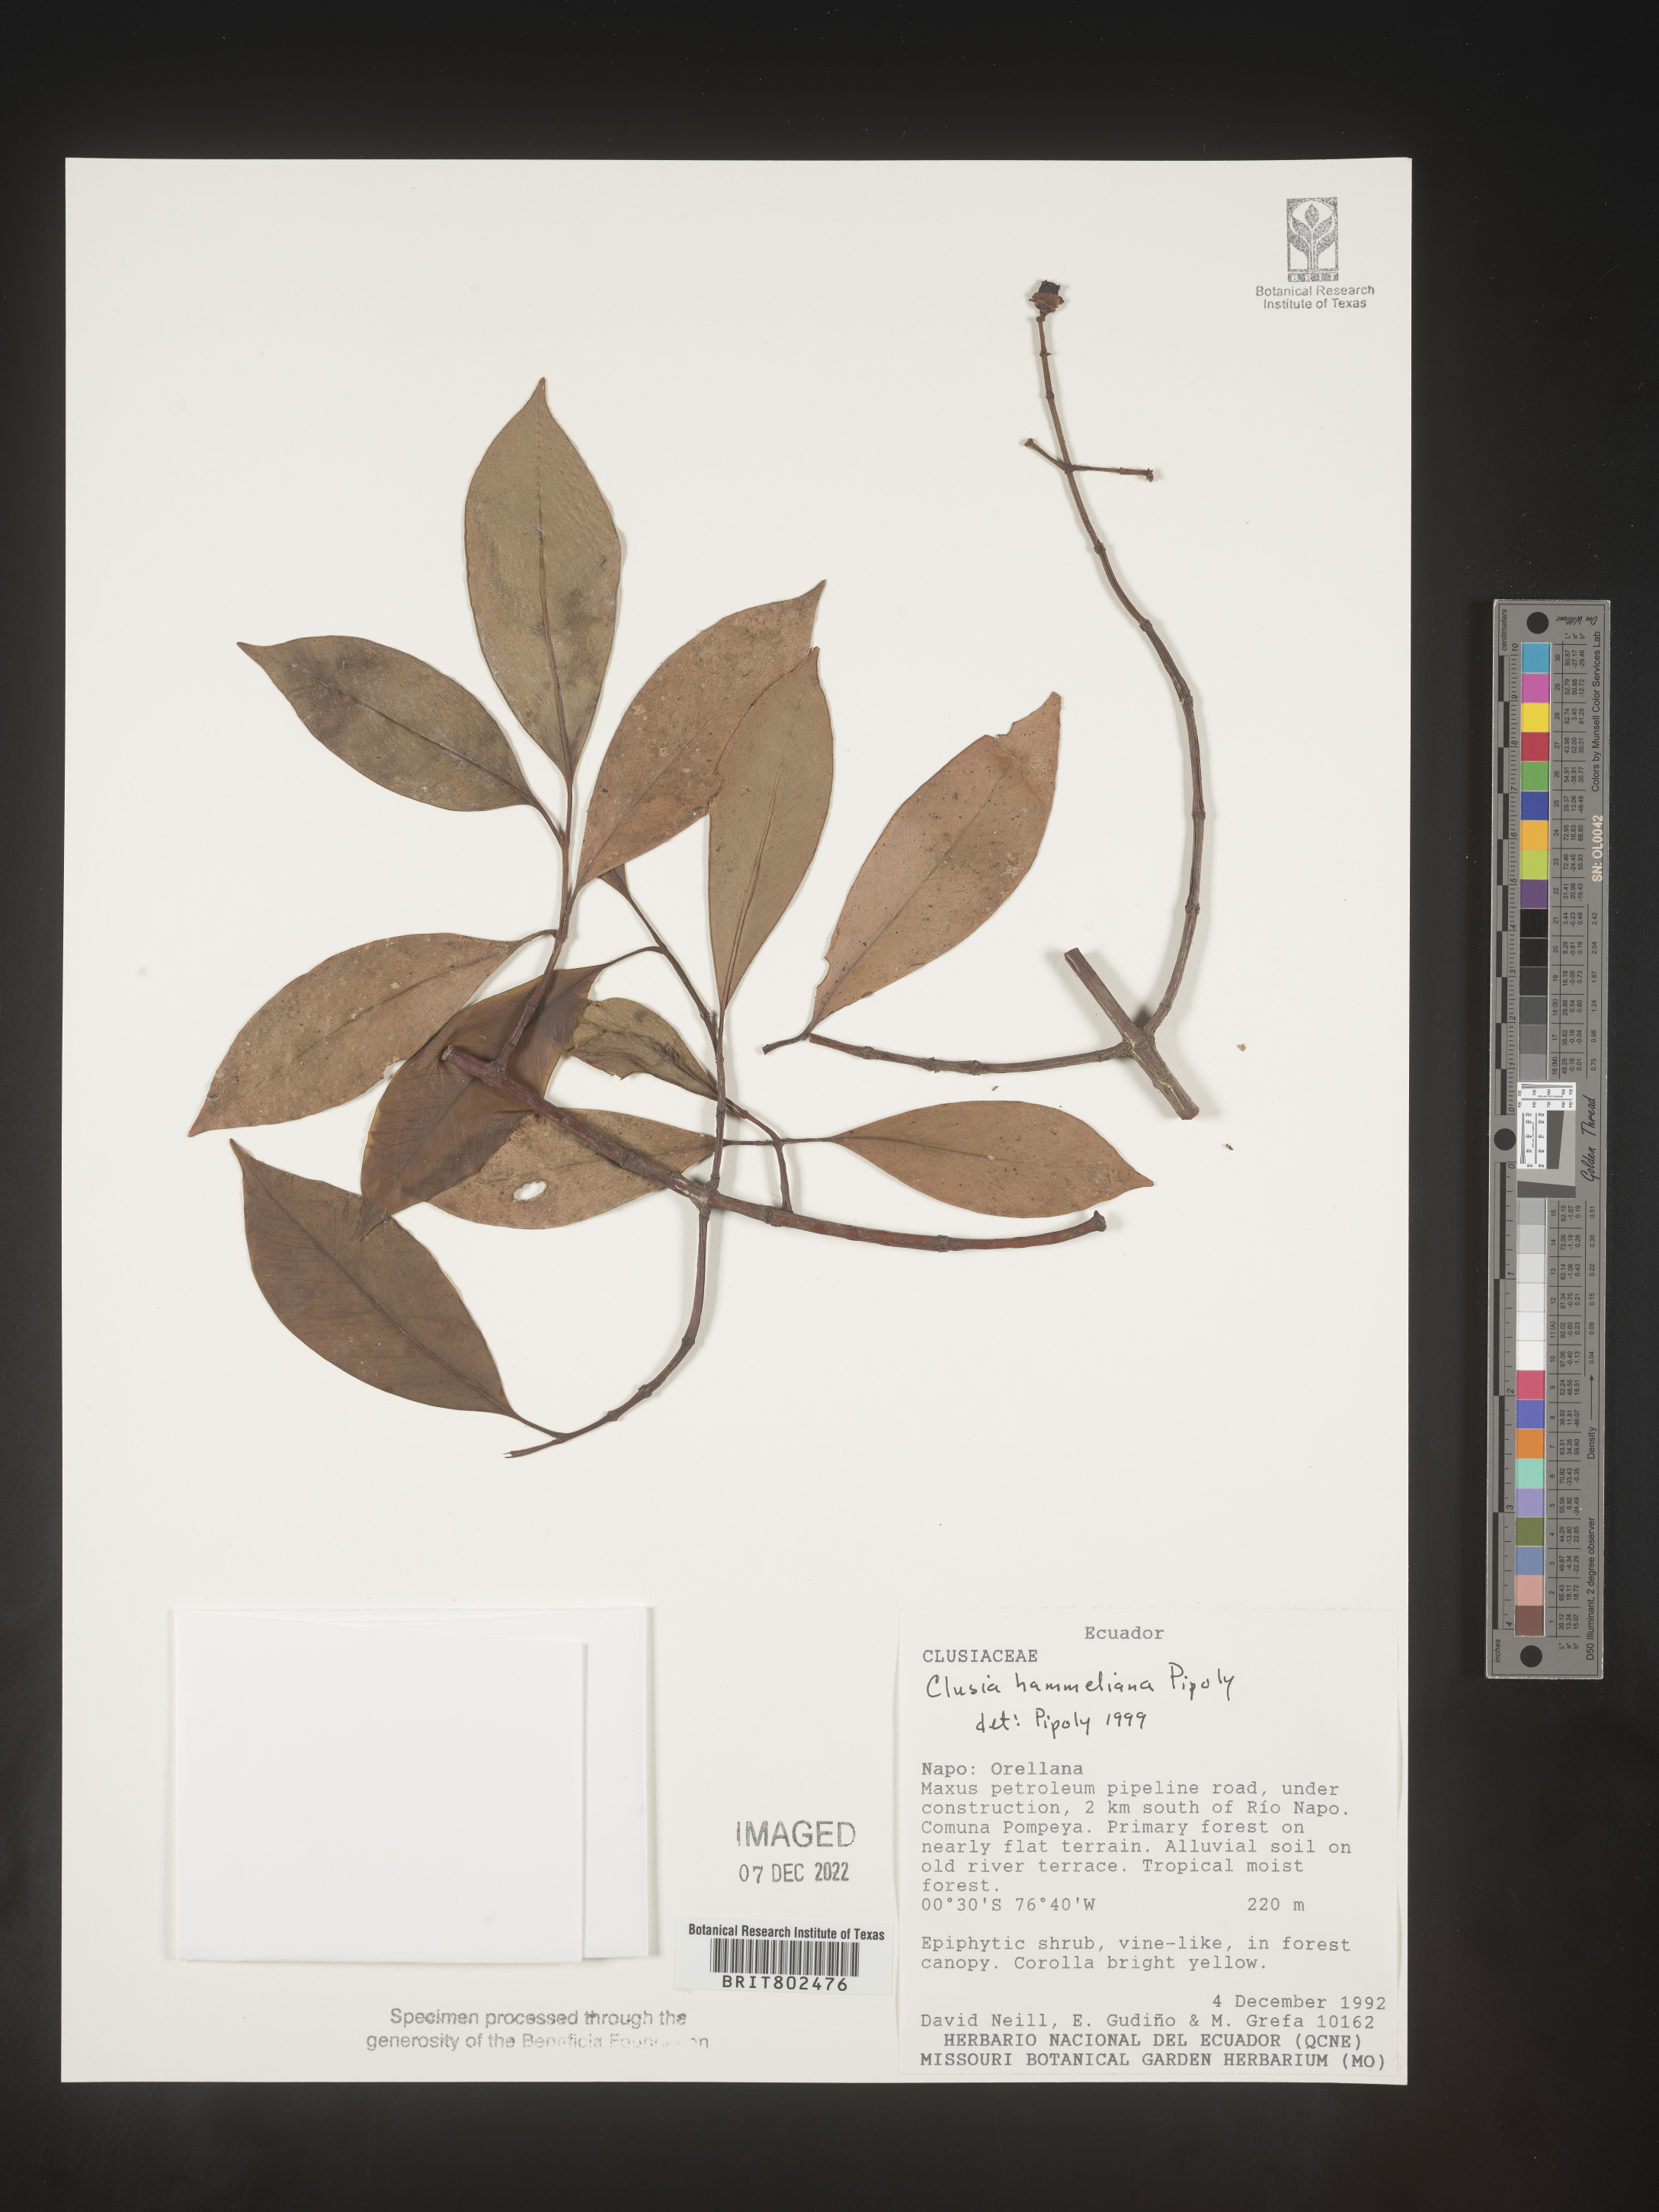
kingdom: Plantae
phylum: Tracheophyta
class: Magnoliopsida
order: Malpighiales
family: Clusiaceae
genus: Clusia
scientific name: Clusia hammeliana
